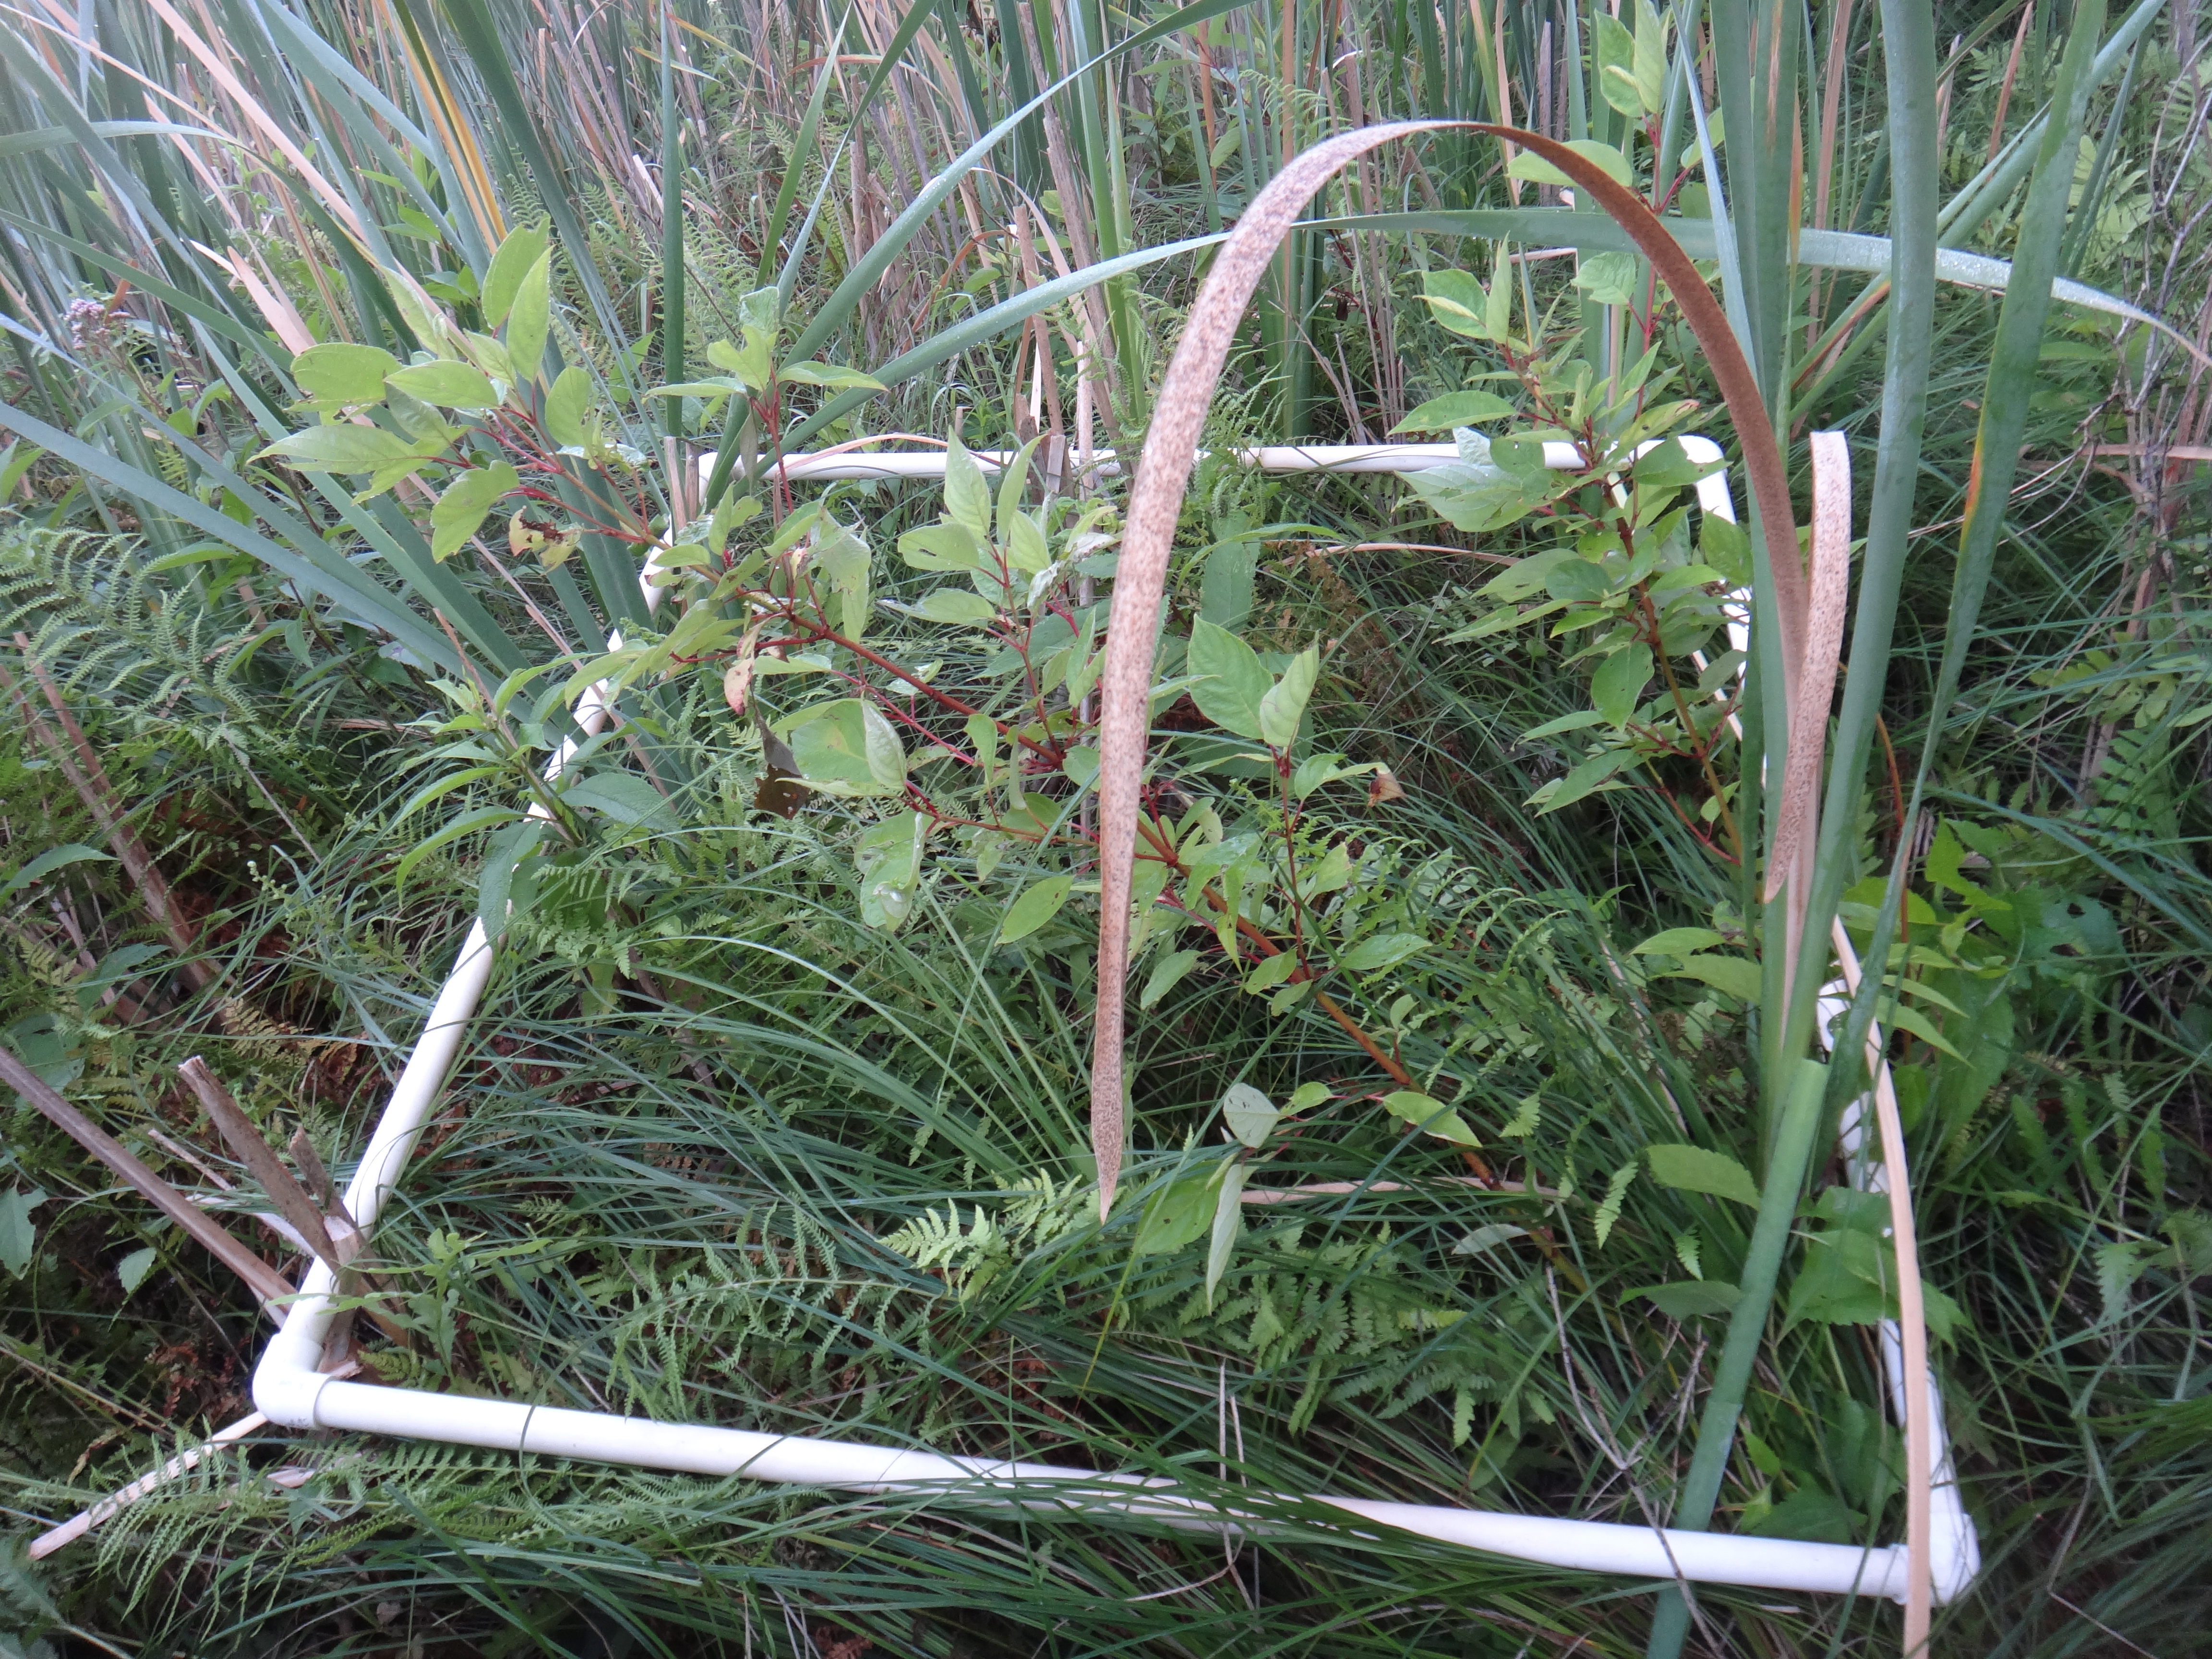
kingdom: Plantae
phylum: Tracheophyta
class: Magnoliopsida
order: Asterales
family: Campanulaceae
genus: Palustricodon
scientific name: Palustricodon aparinoides
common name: Bedstraw bellflower
